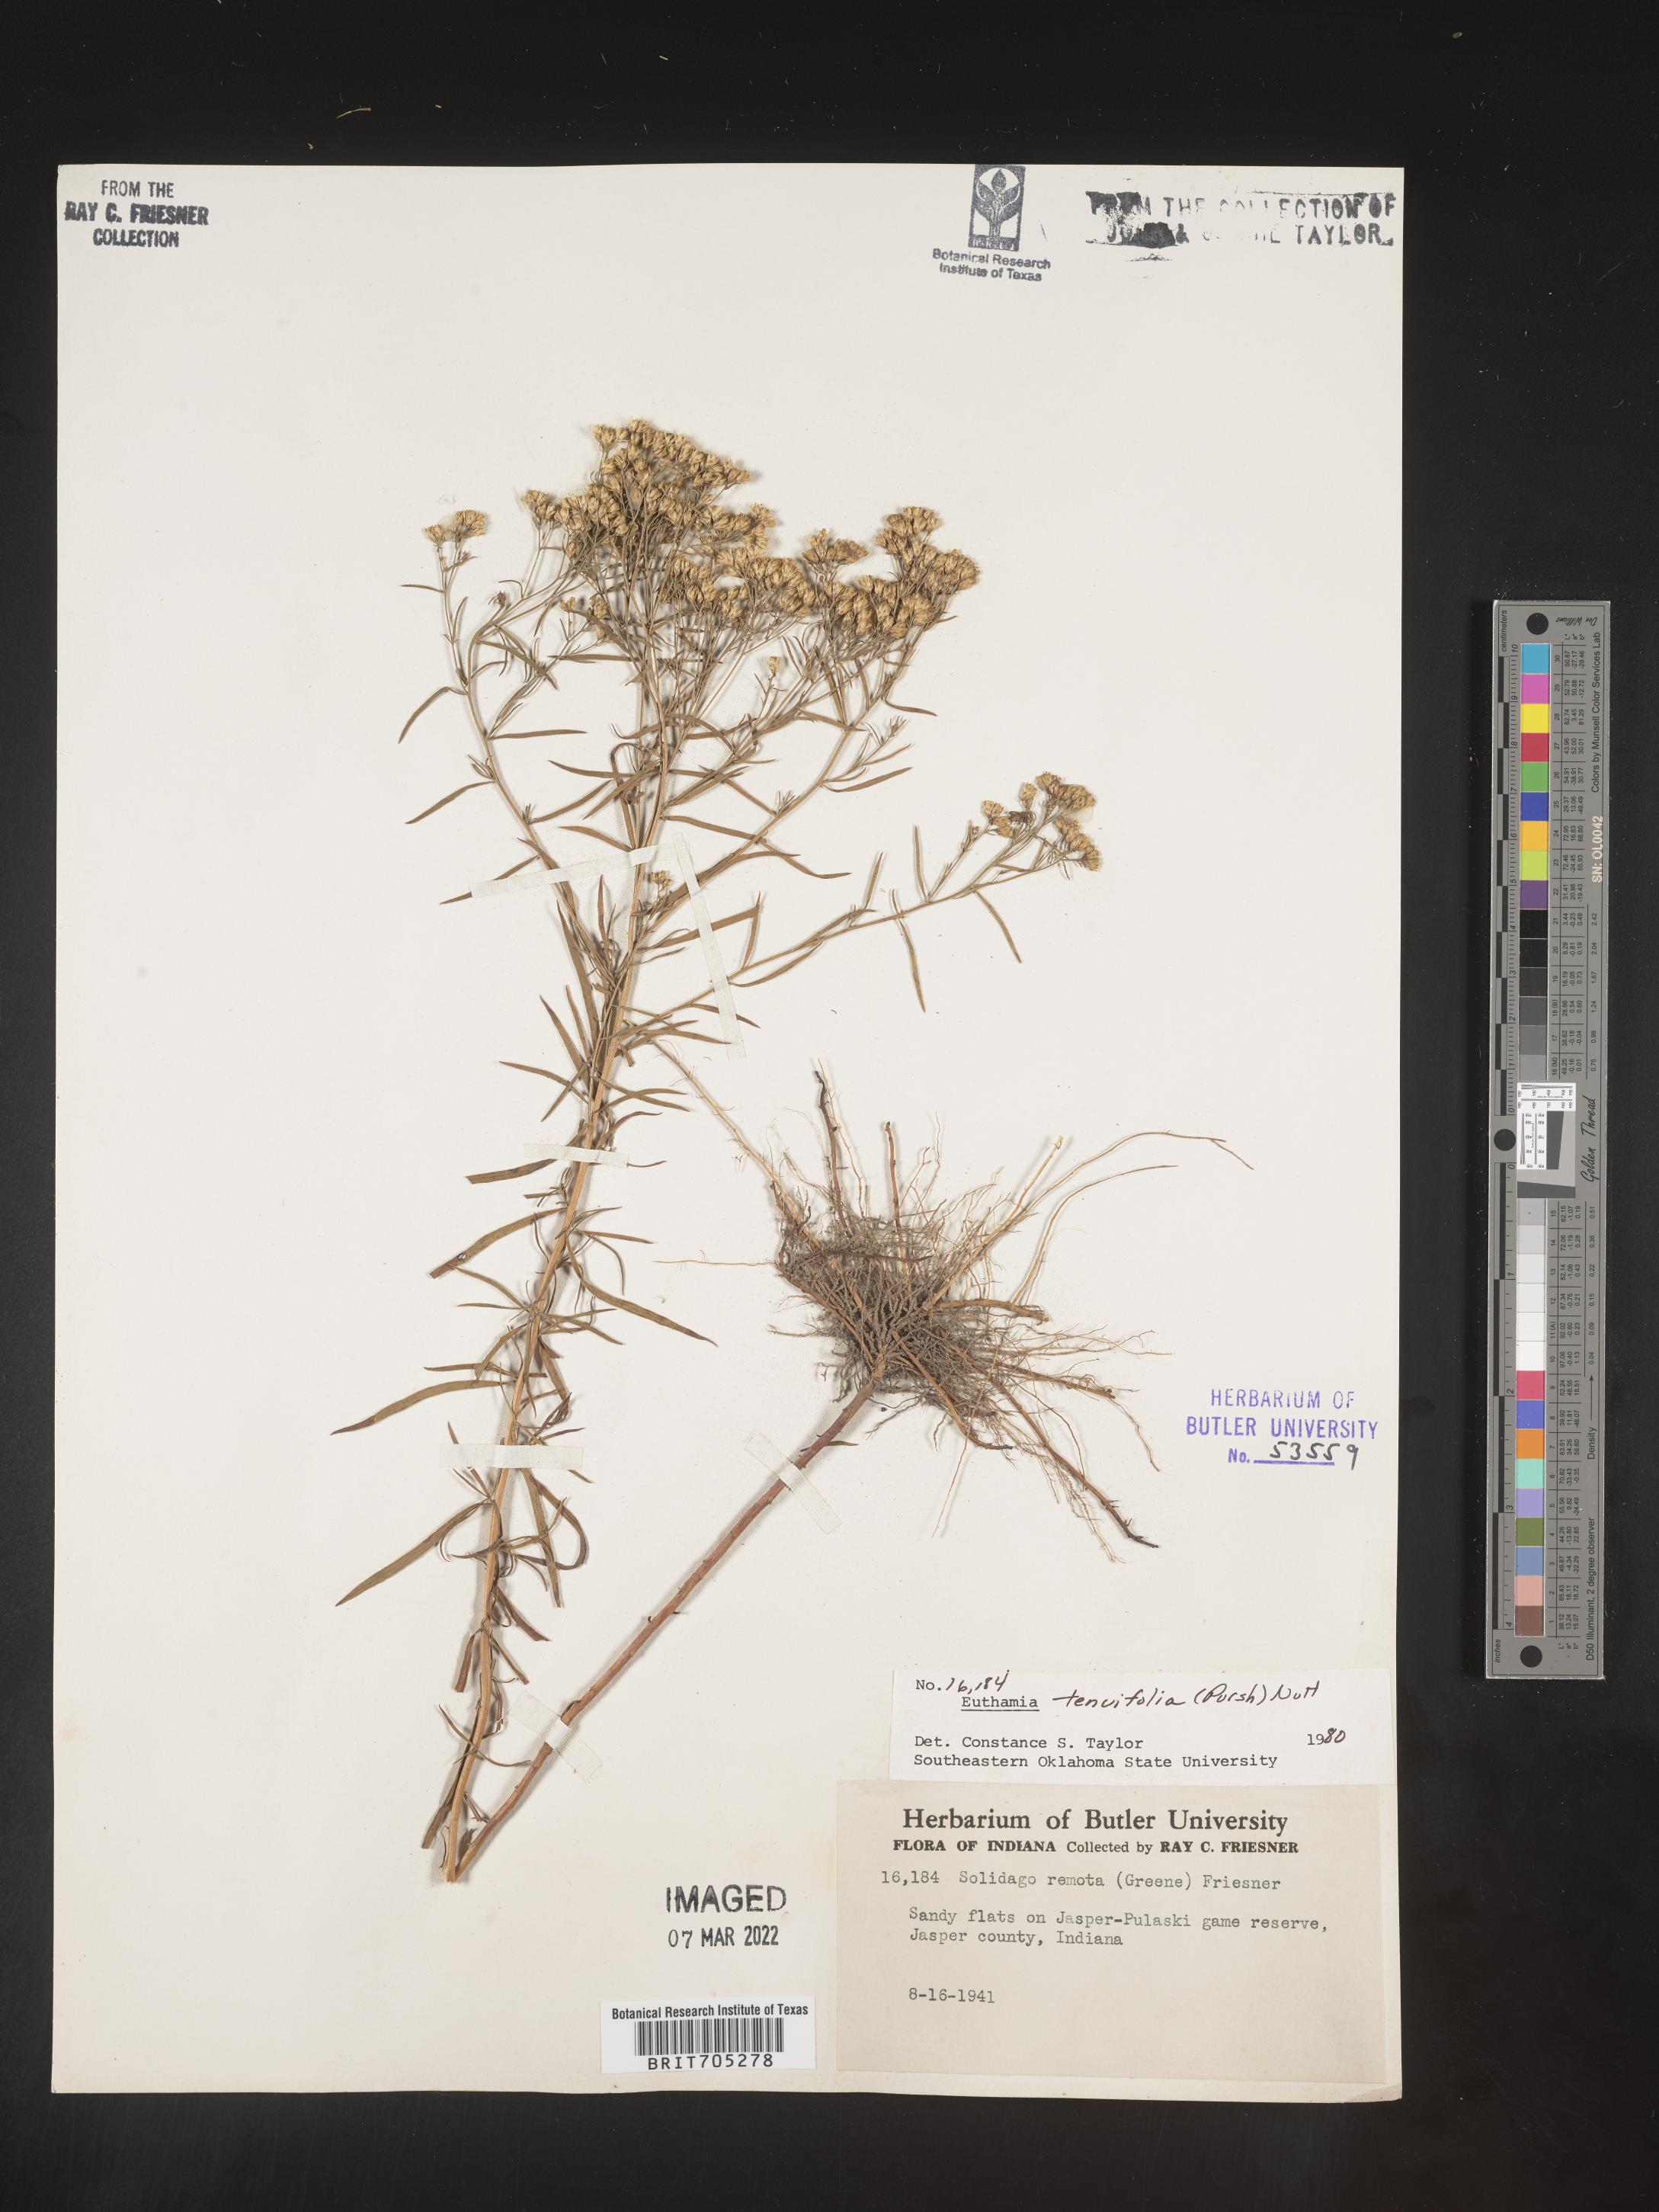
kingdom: Plantae
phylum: Tracheophyta
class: Magnoliopsida
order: Asterales
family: Asteraceae
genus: Euthamia
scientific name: Euthamia gymnospermoides
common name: Great plains goldentop
